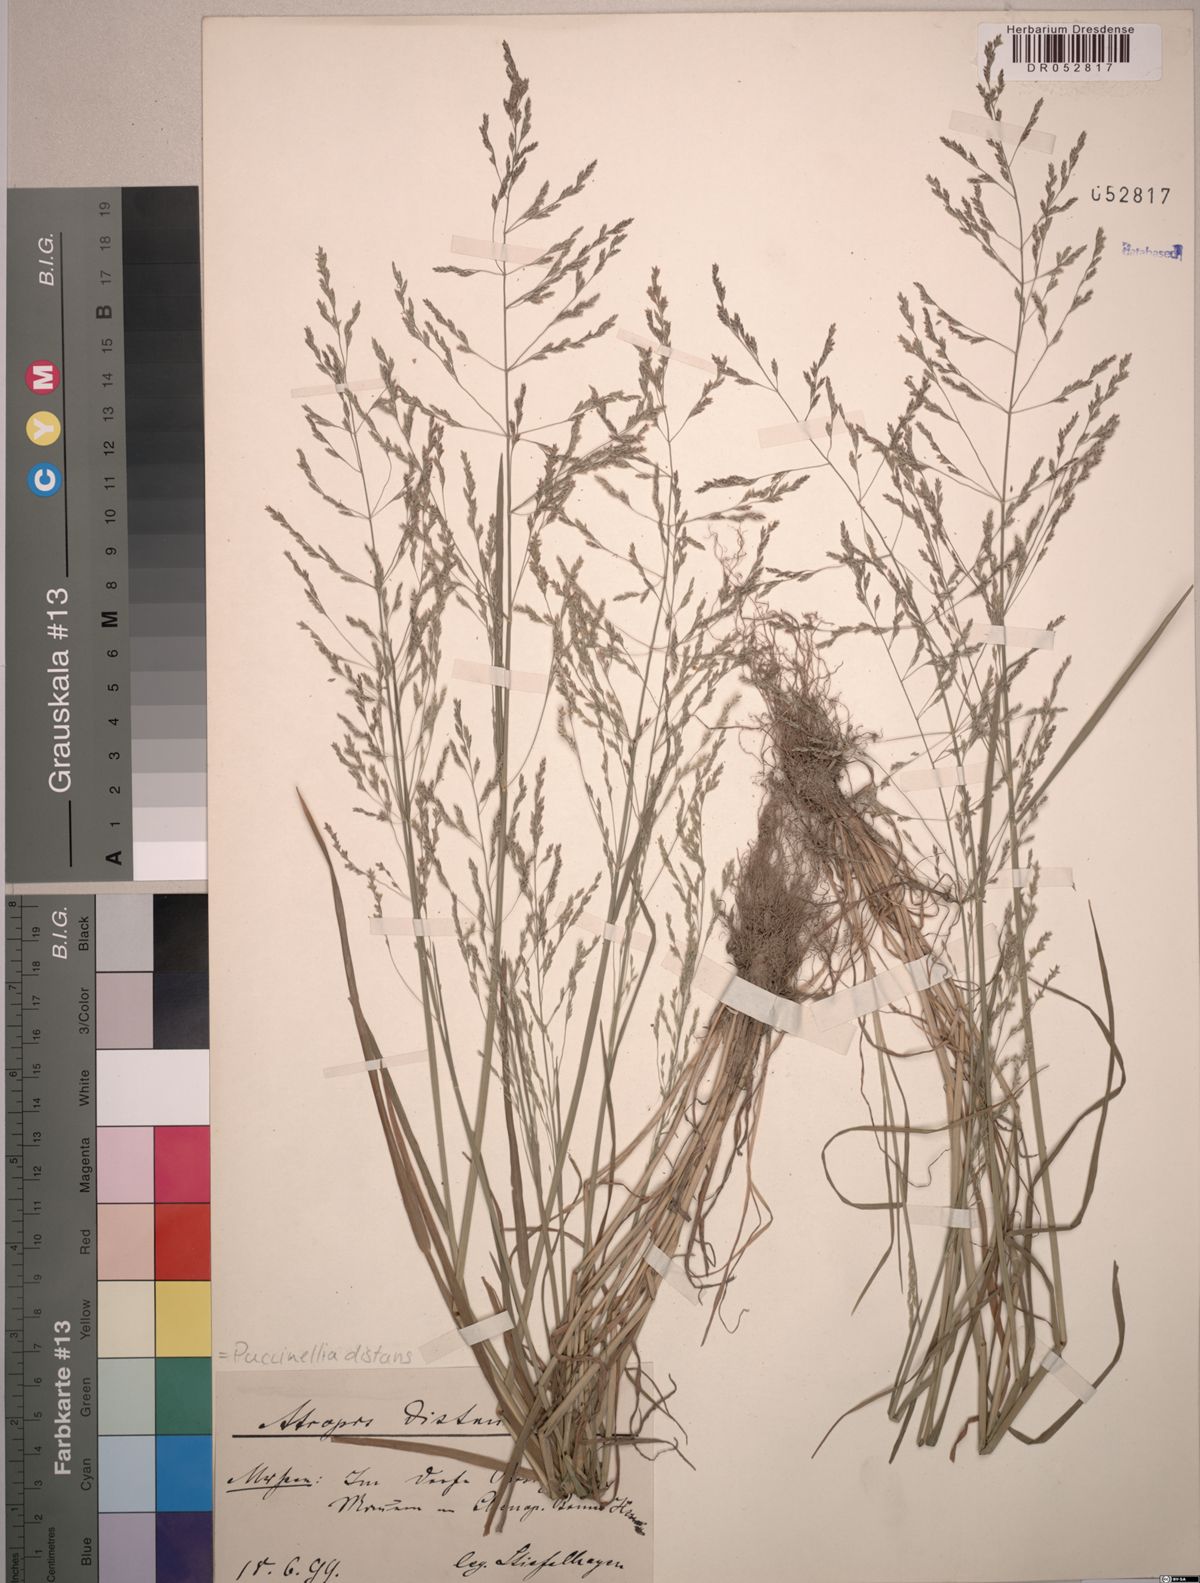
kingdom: Plantae
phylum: Tracheophyta
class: Liliopsida
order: Poales
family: Poaceae
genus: Puccinellia
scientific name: Puccinellia distans
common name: Weeping alkaligrass
